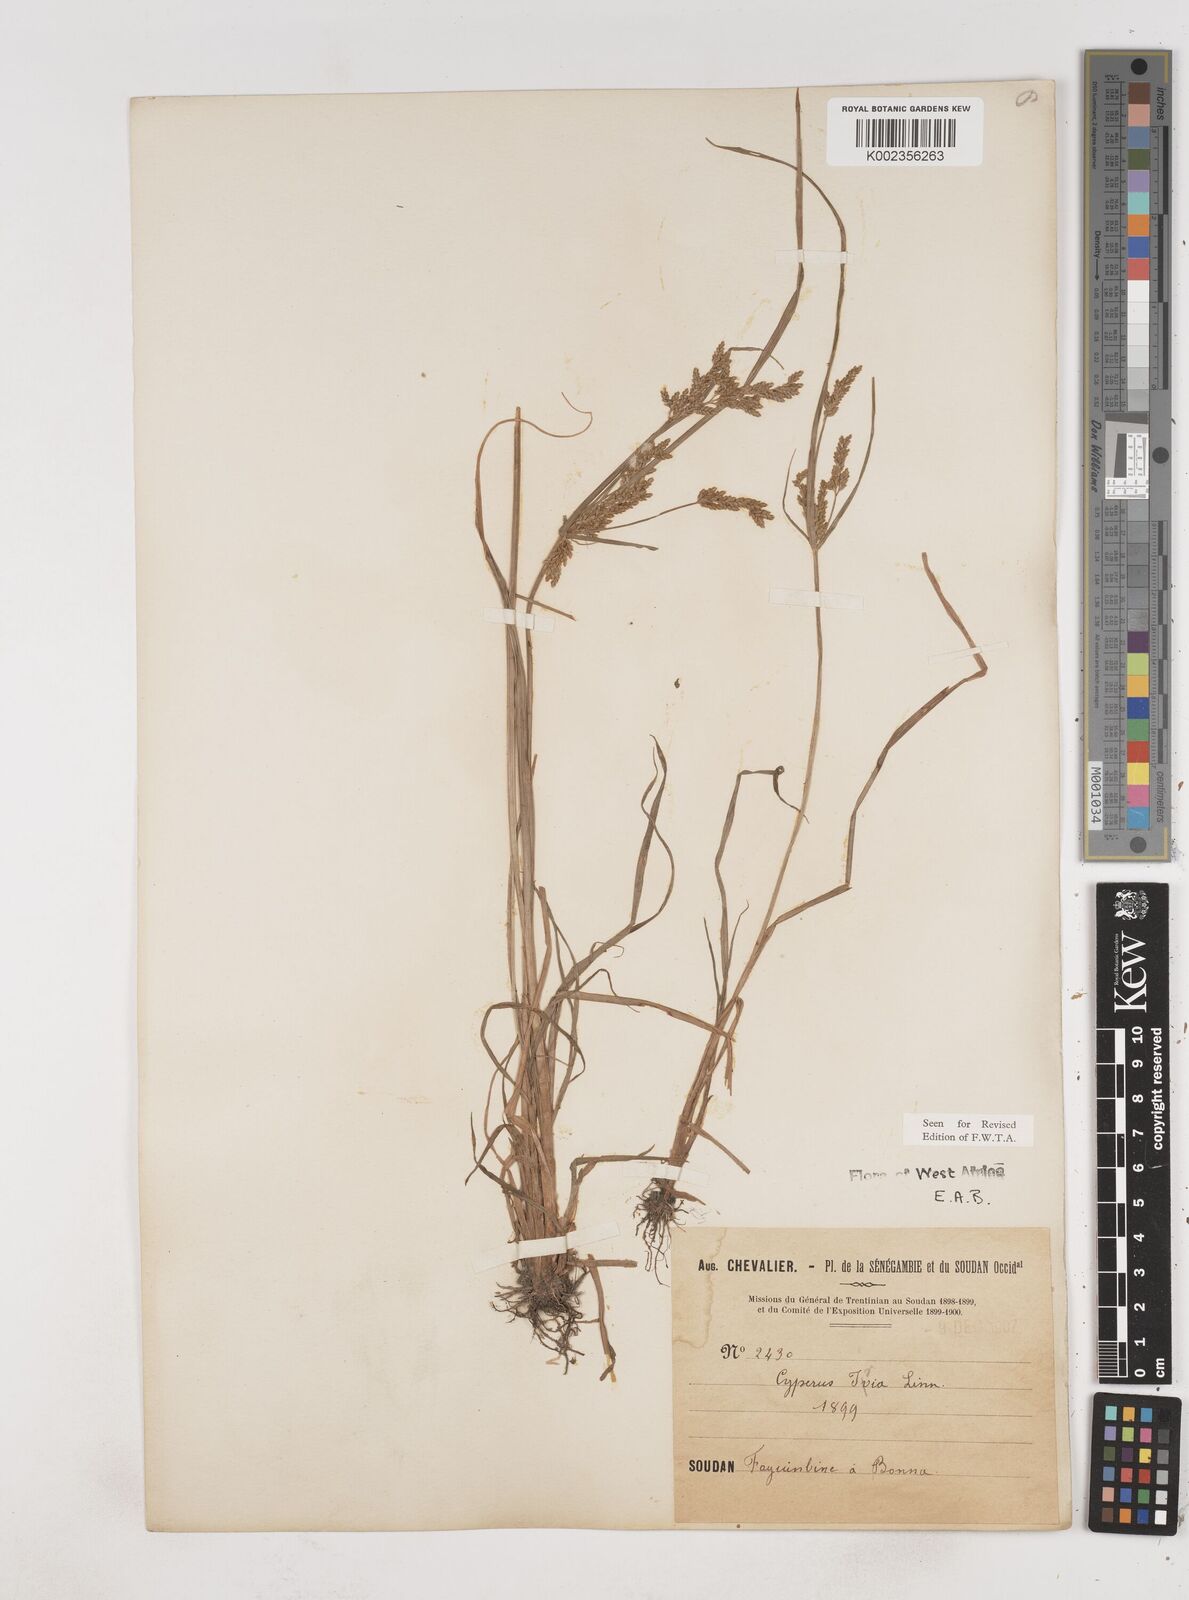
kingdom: Plantae
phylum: Tracheophyta
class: Liliopsida
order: Poales
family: Cyperaceae
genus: Cyperus
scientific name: Cyperus iria
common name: Ricefield flatsedge
